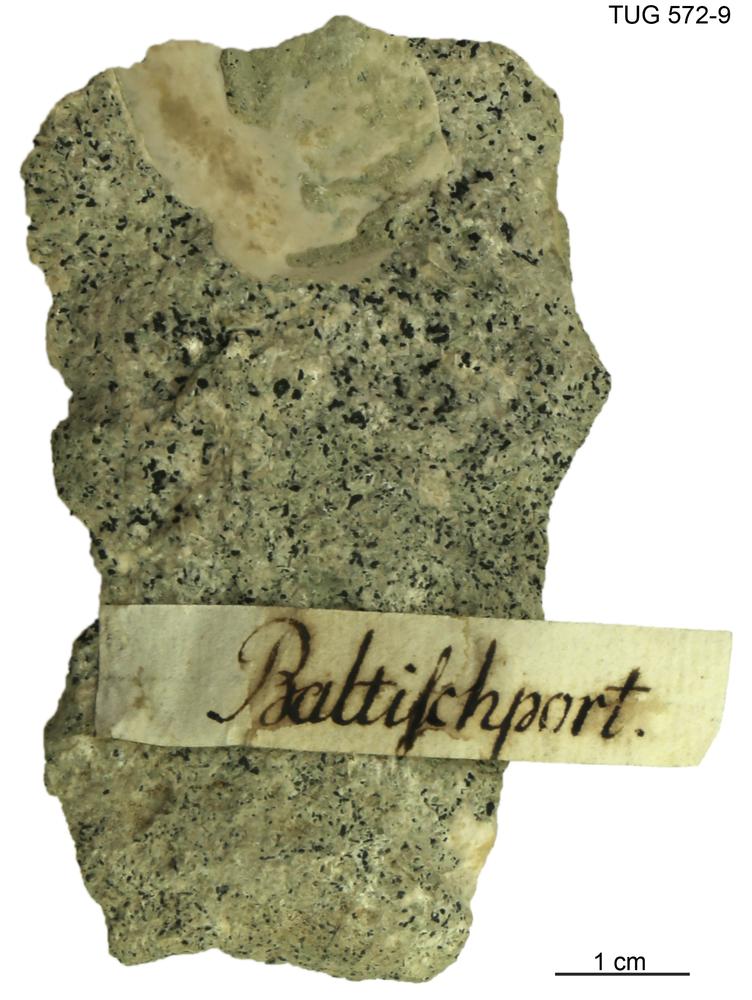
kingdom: Animalia
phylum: Arthropoda
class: Trilobita
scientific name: Trilobita
